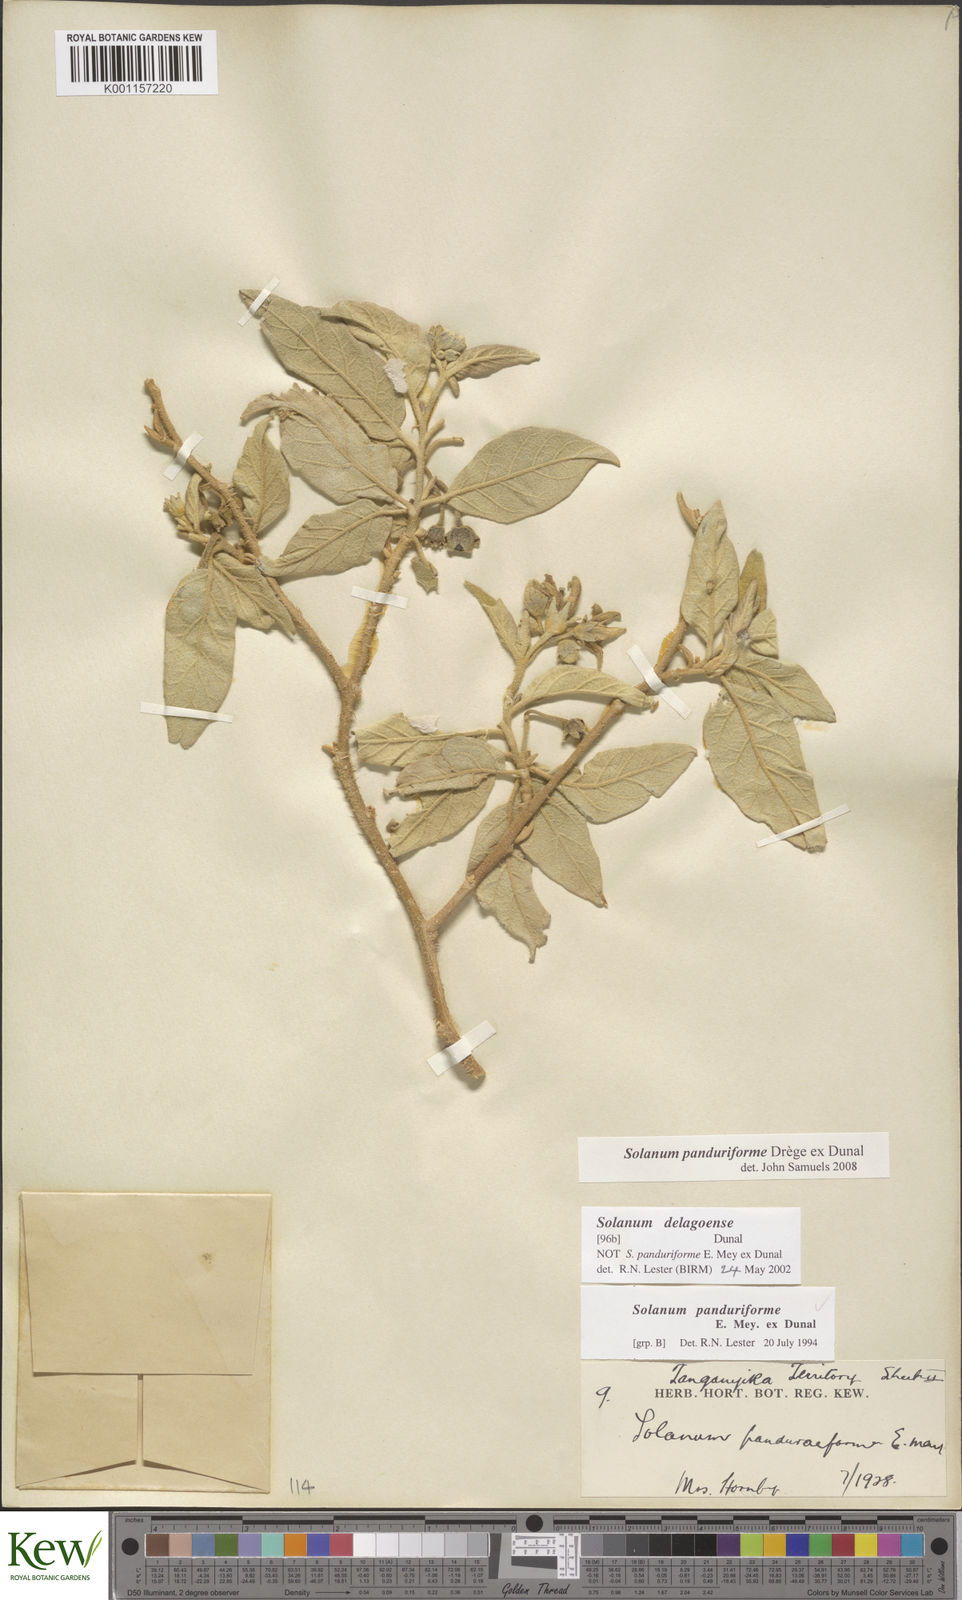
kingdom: Plantae
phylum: Tracheophyta
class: Magnoliopsida
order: Solanales
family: Solanaceae
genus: Solanum
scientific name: Solanum campylacanthum
